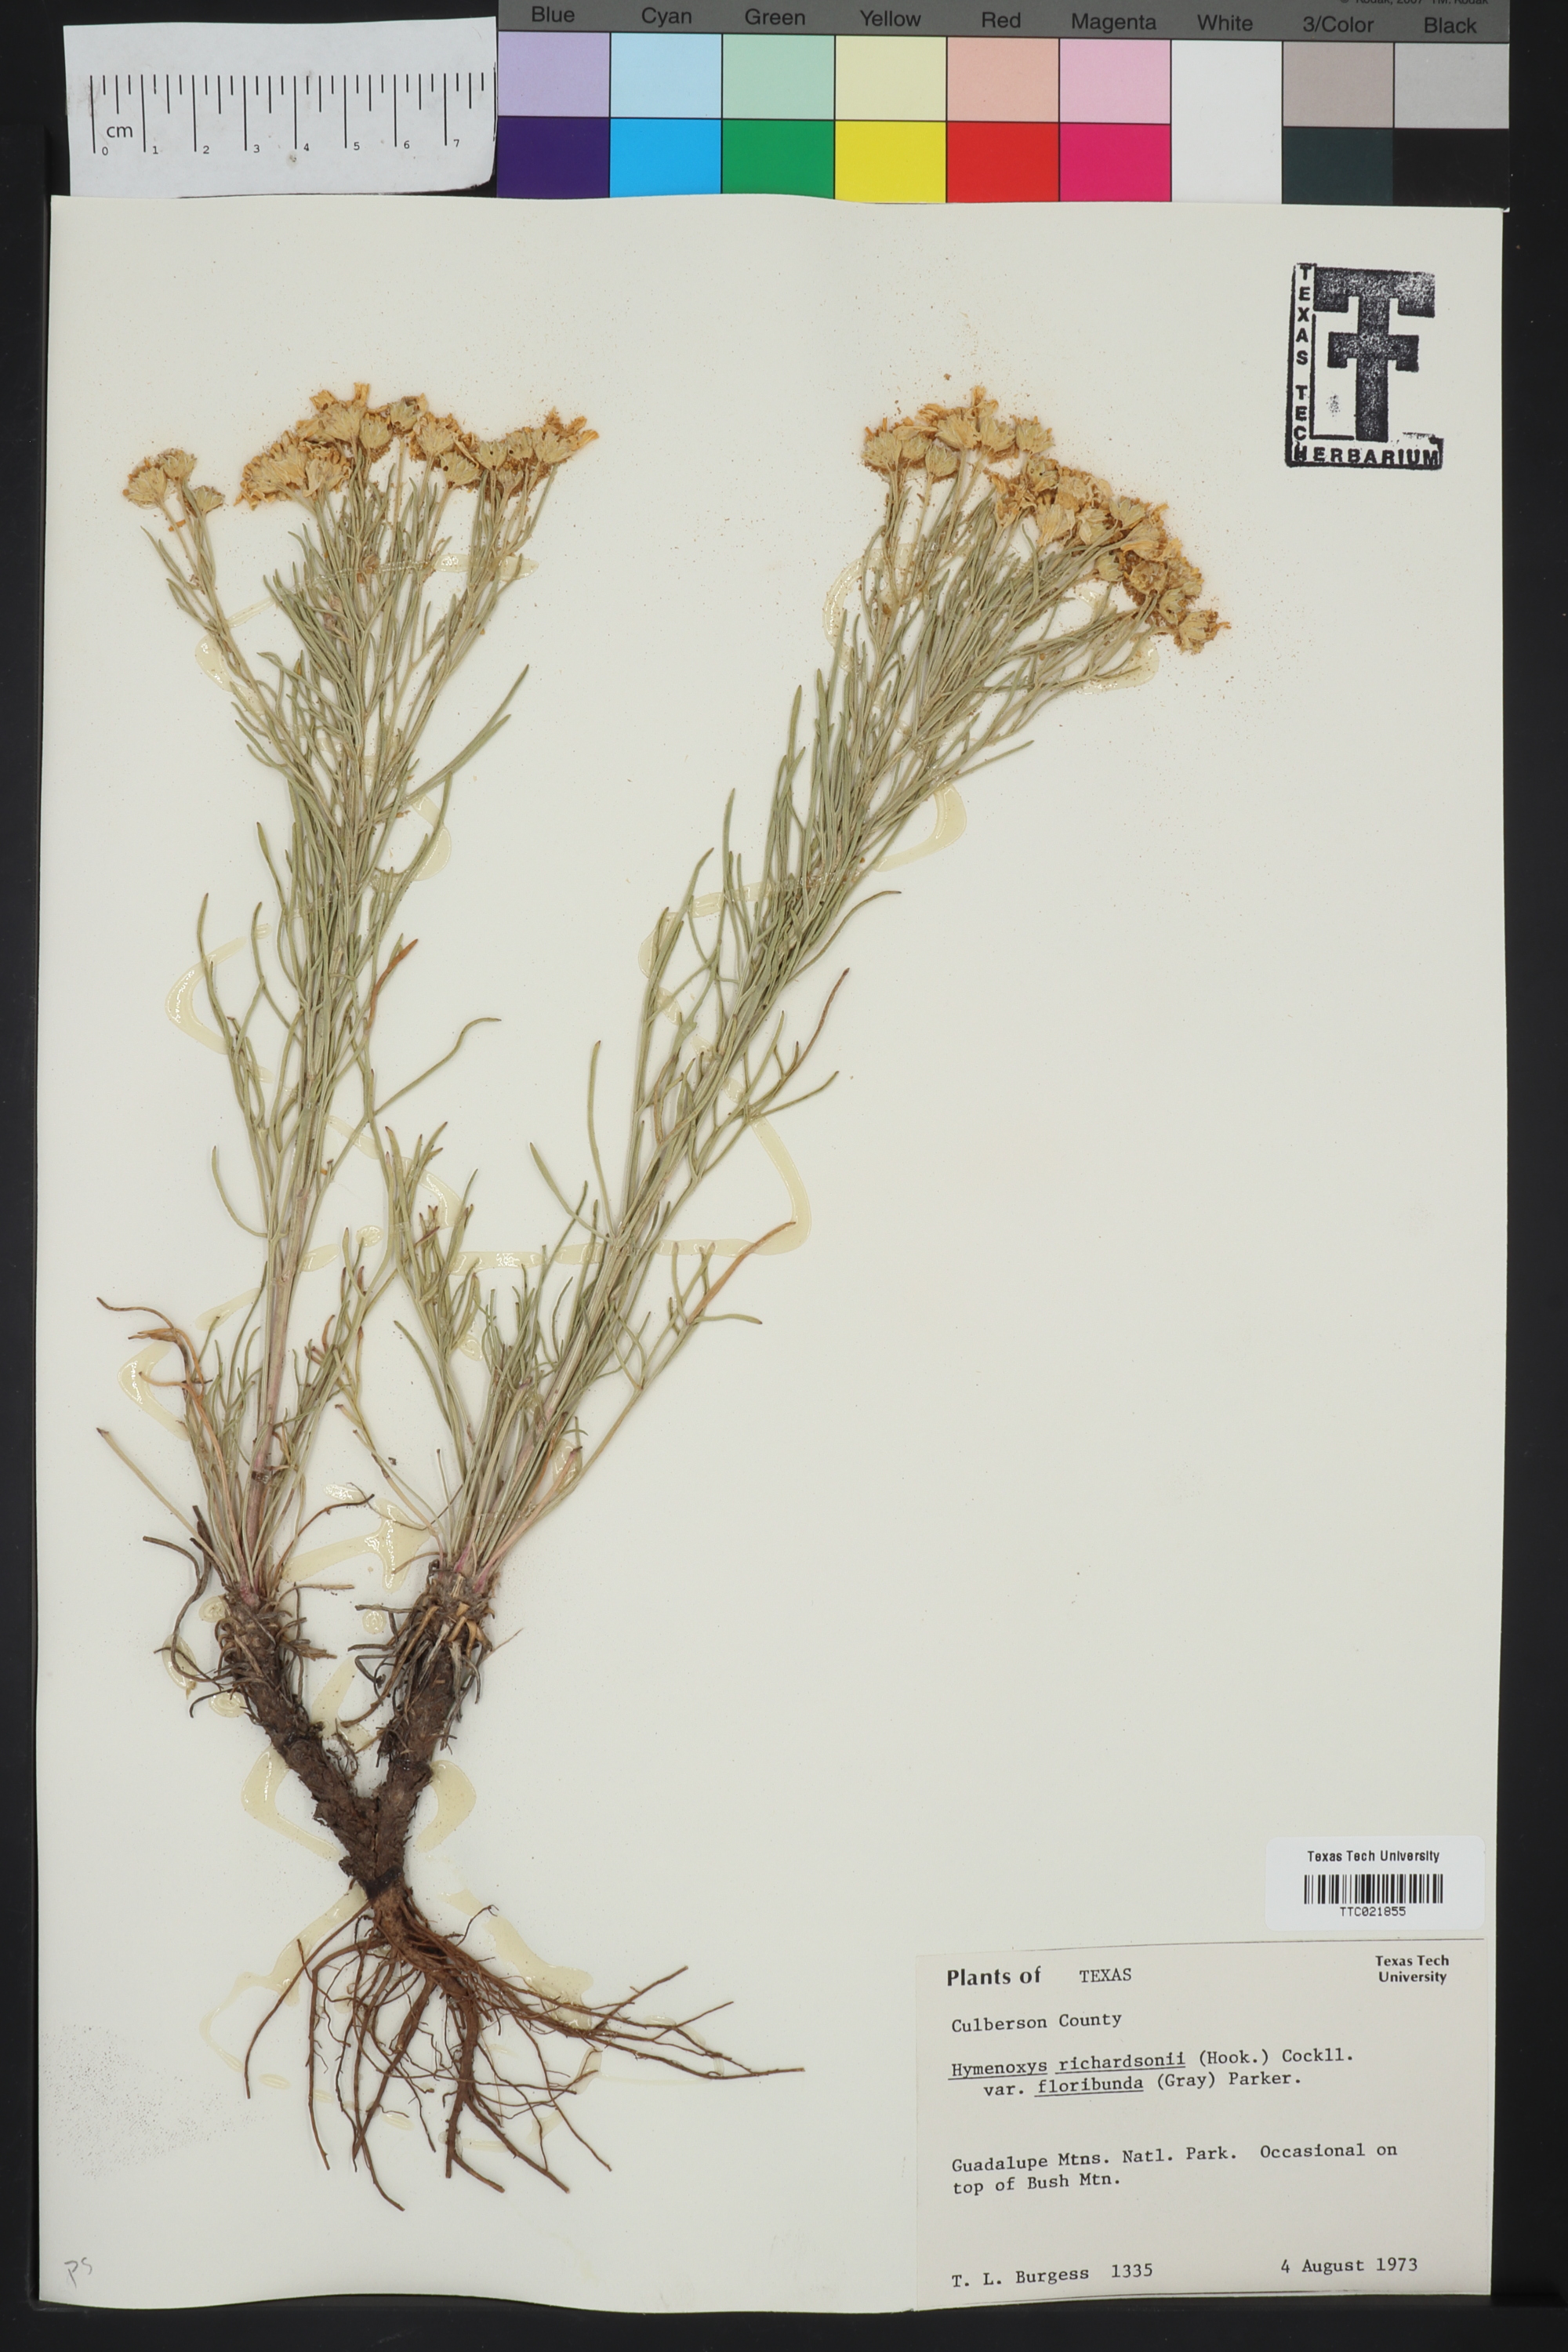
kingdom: Plantae
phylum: Tracheophyta
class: Magnoliopsida
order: Asterales
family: Asteraceae
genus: Hymenoxys
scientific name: Hymenoxys richardsonii
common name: Pingue rubberweed
